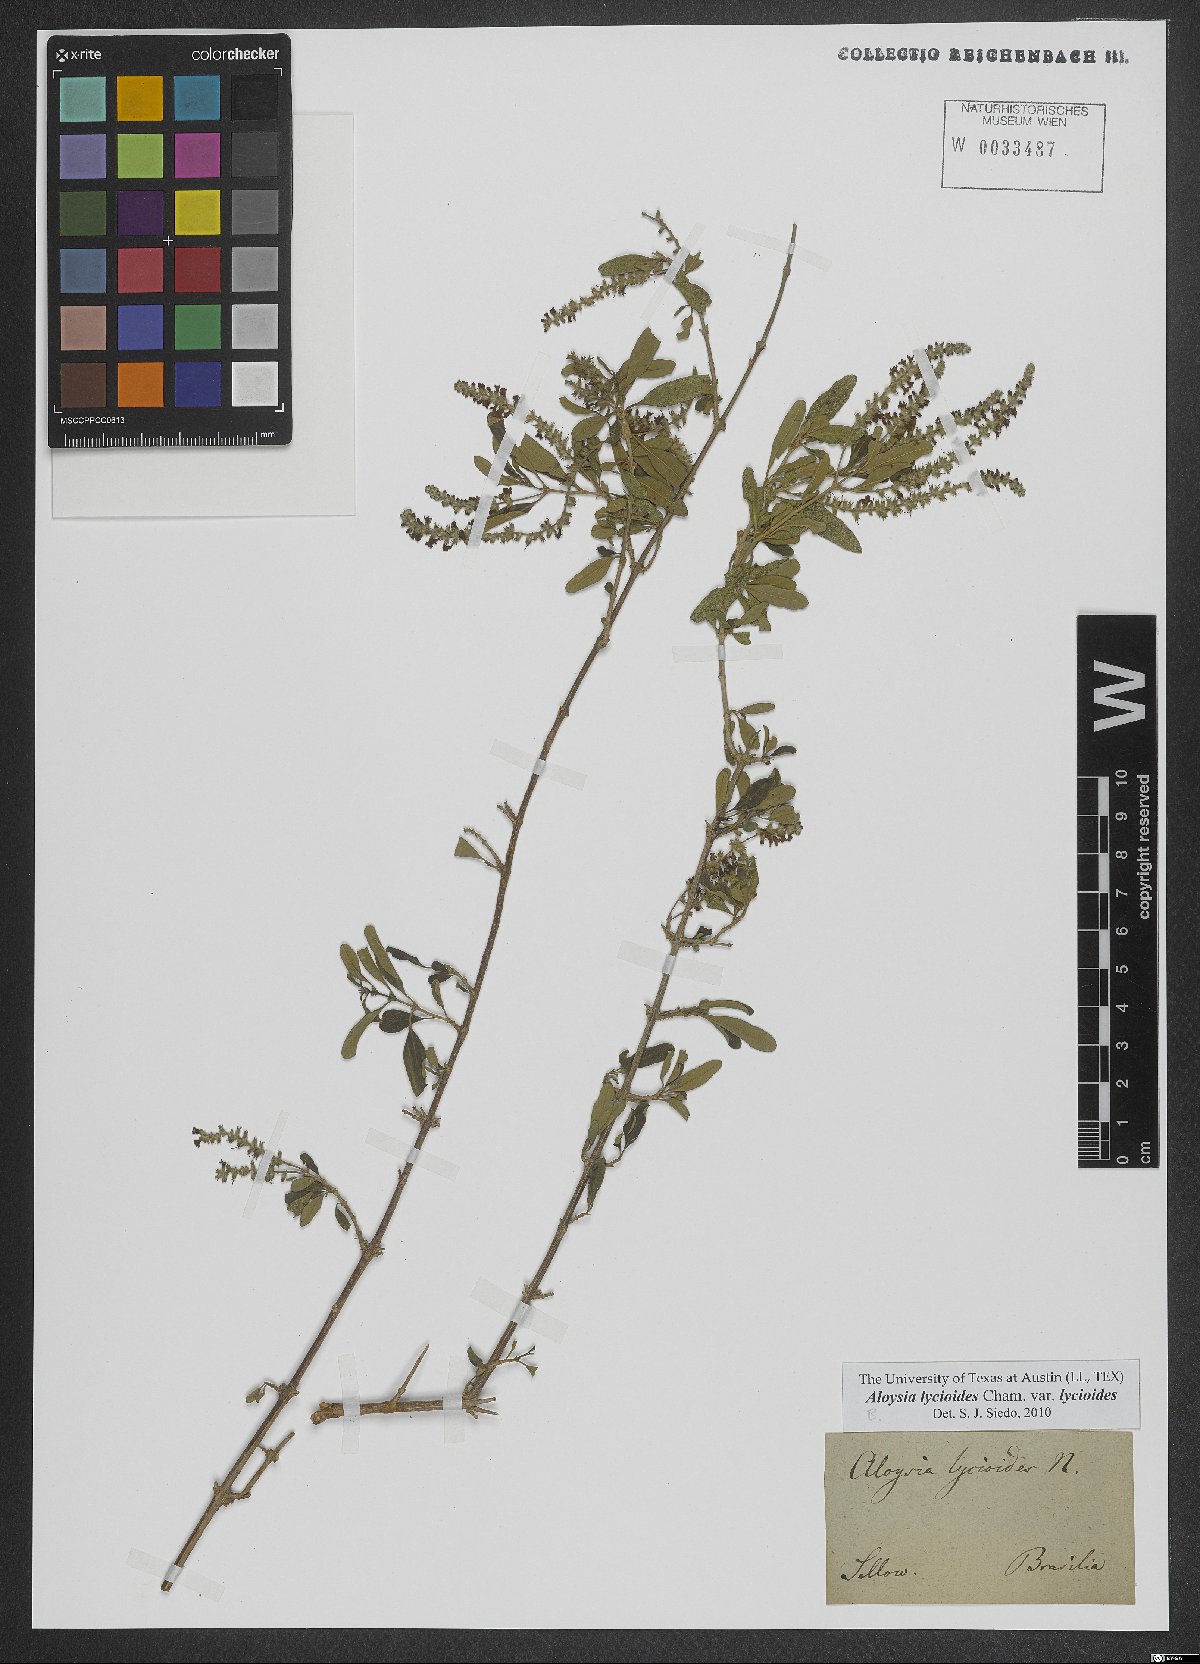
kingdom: Plantae
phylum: Tracheophyta
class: Magnoliopsida
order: Lamiales
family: Verbenaceae
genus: Aloysia
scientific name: Aloysia gratissima
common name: Common bee-brush
